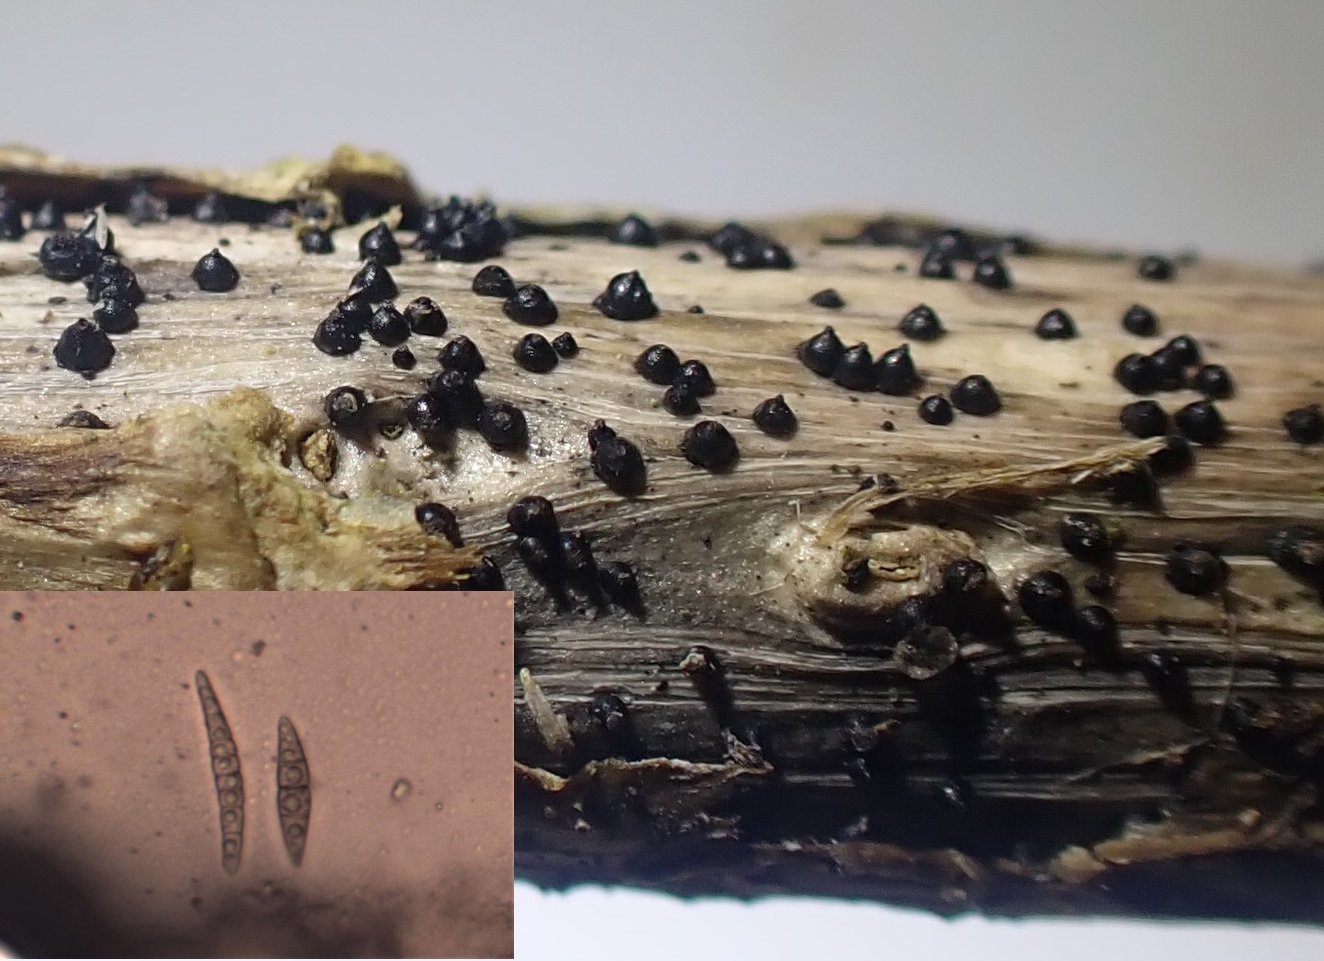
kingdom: Fungi
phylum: Ascomycota
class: Dothideomycetes
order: Pleosporales
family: Leptosphaeriaceae
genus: Leptosphaeria
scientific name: Leptosphaeria acuta
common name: spids kulkegle
